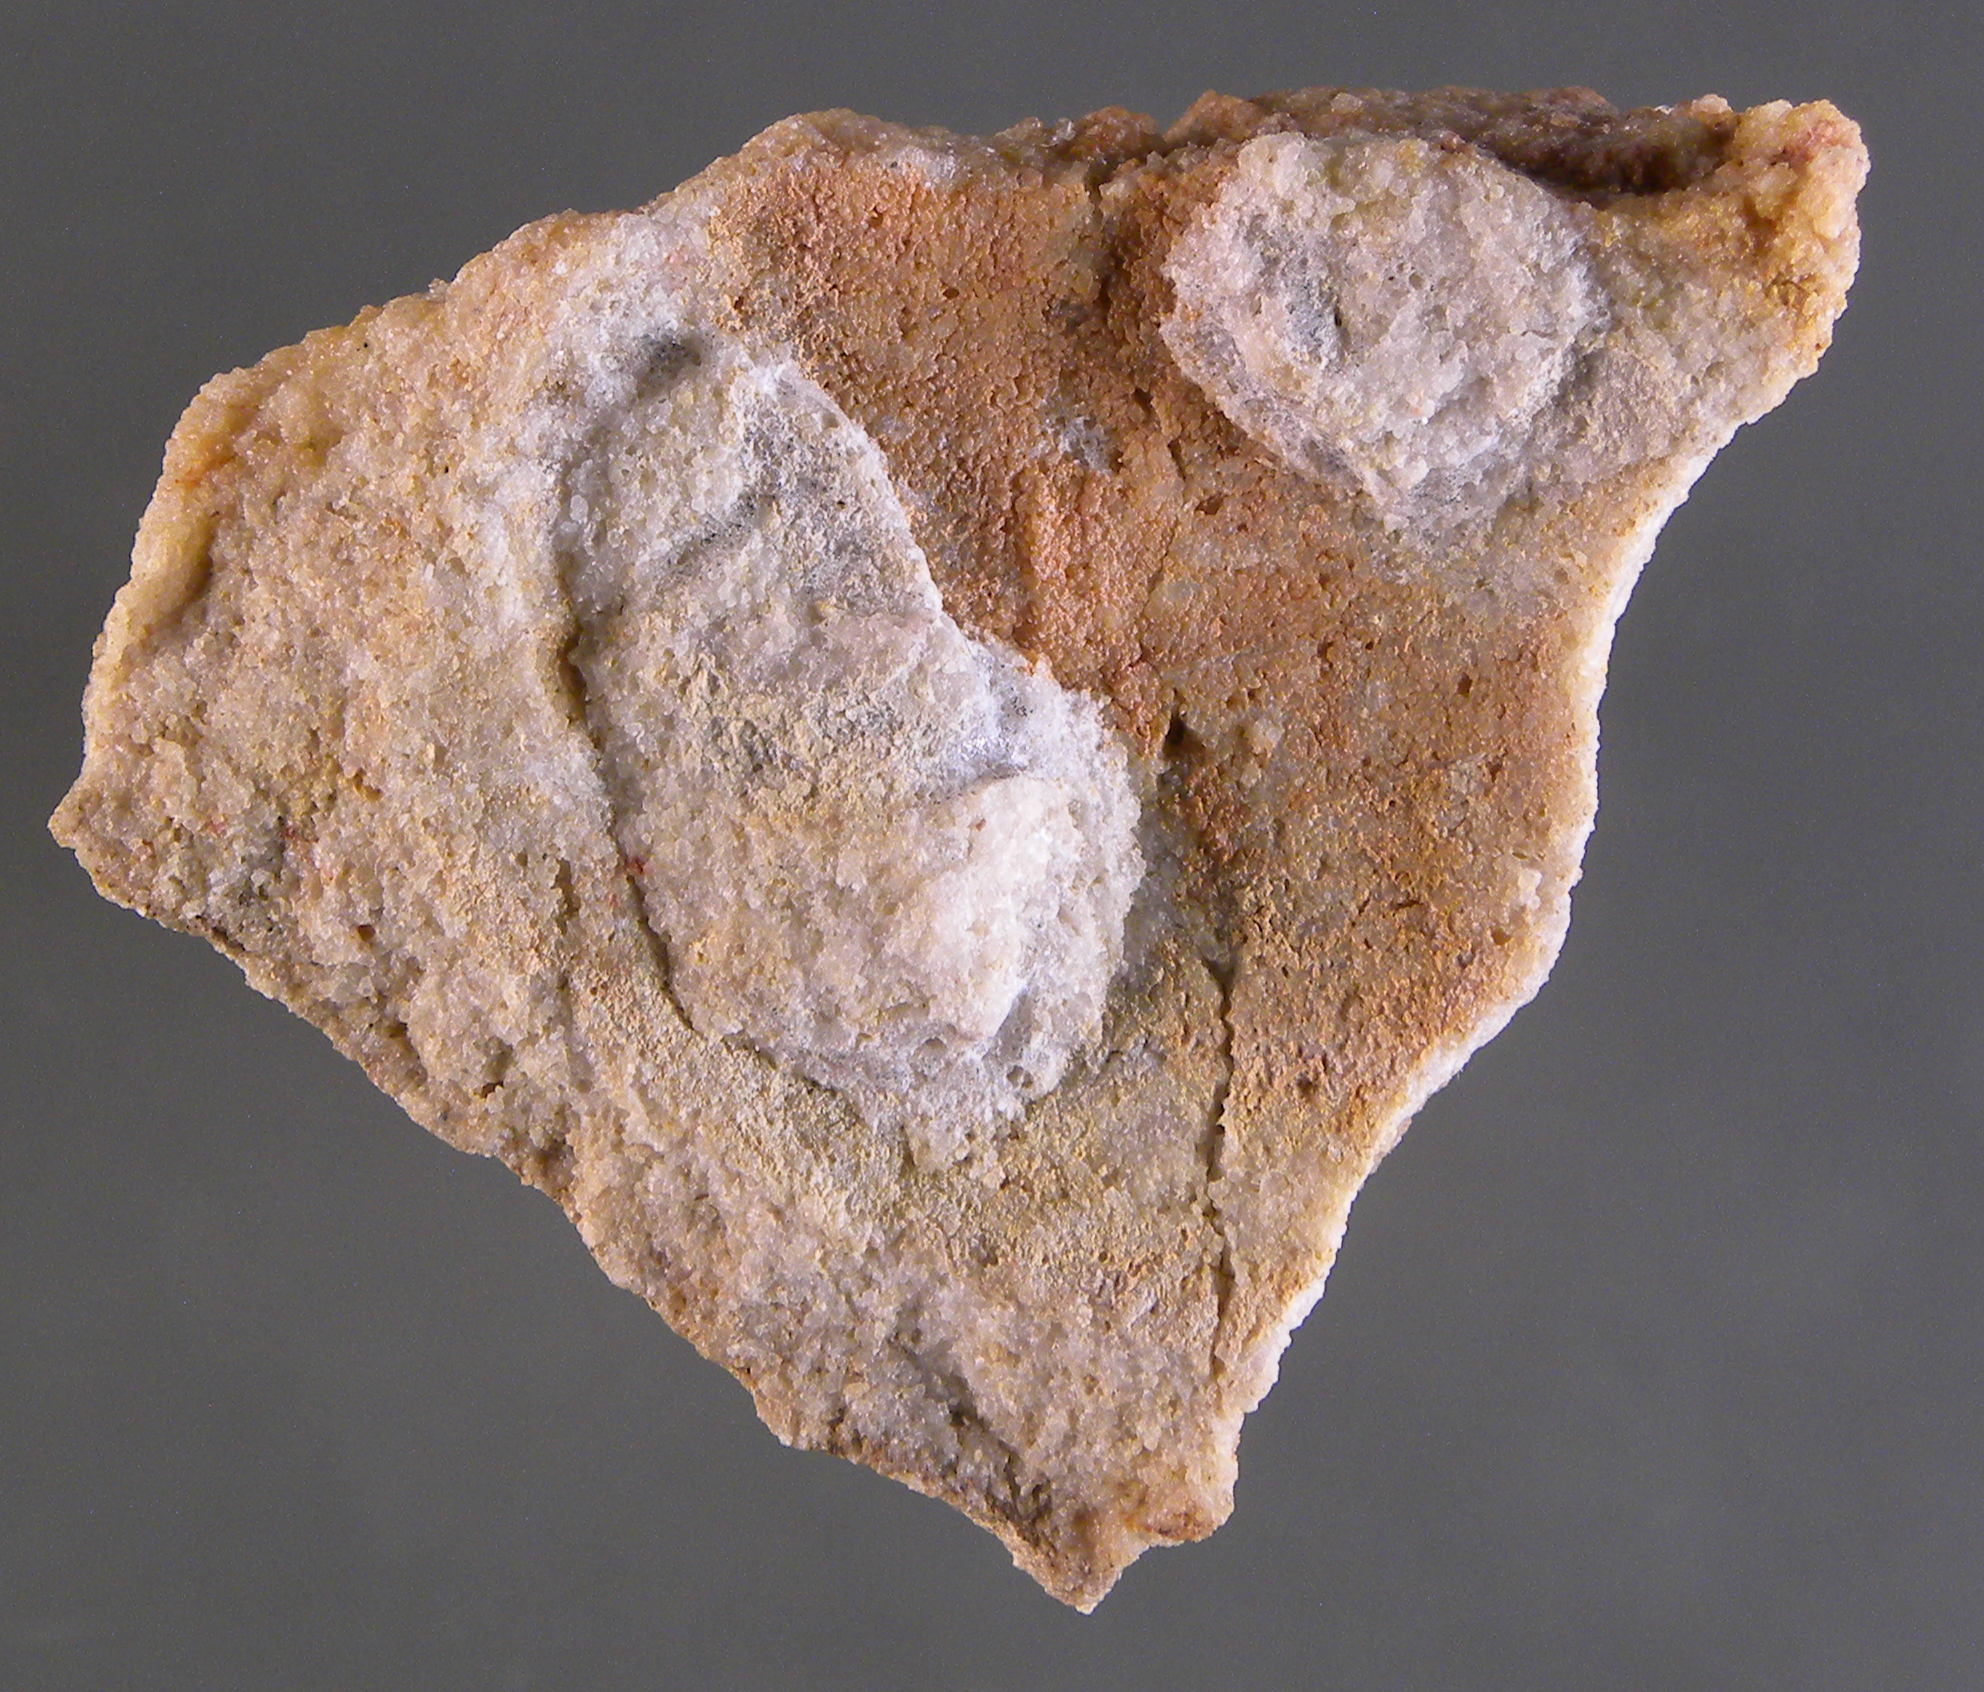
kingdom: Animalia
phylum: Mollusca
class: Bivalvia
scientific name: Bivalvia
